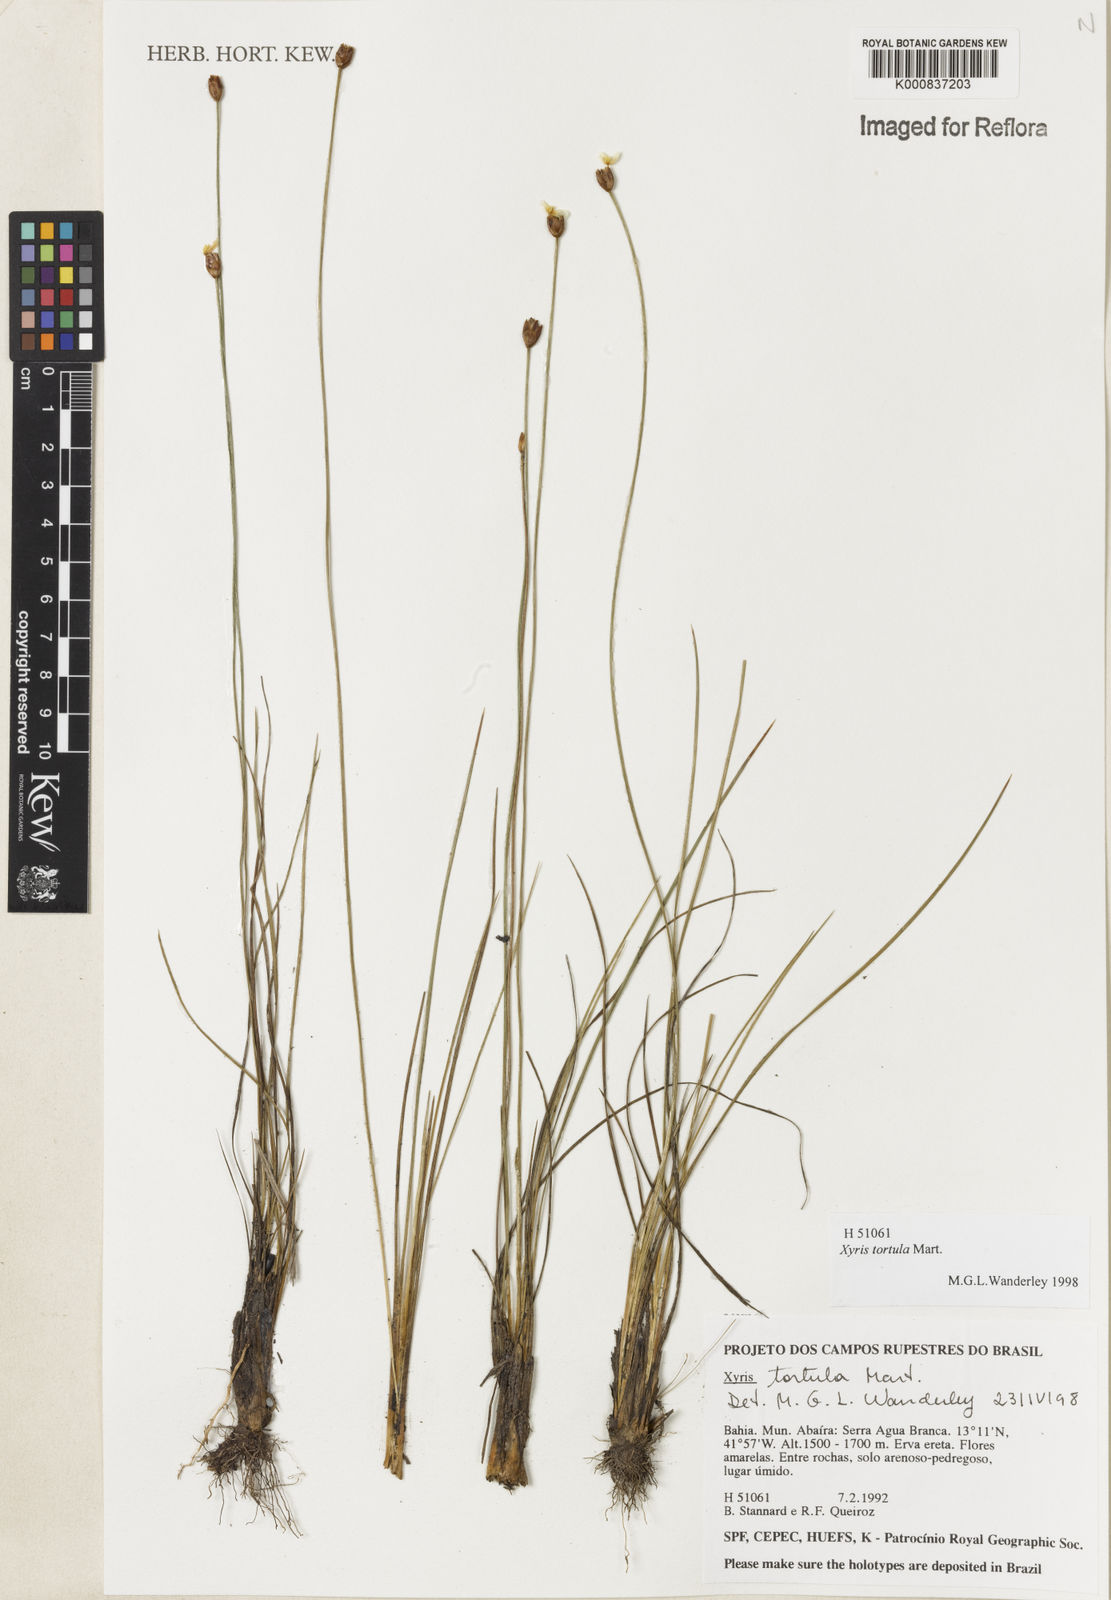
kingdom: Plantae
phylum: Tracheophyta
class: Liliopsida
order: Poales
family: Xyridaceae
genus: Xyris
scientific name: Xyris tortula
